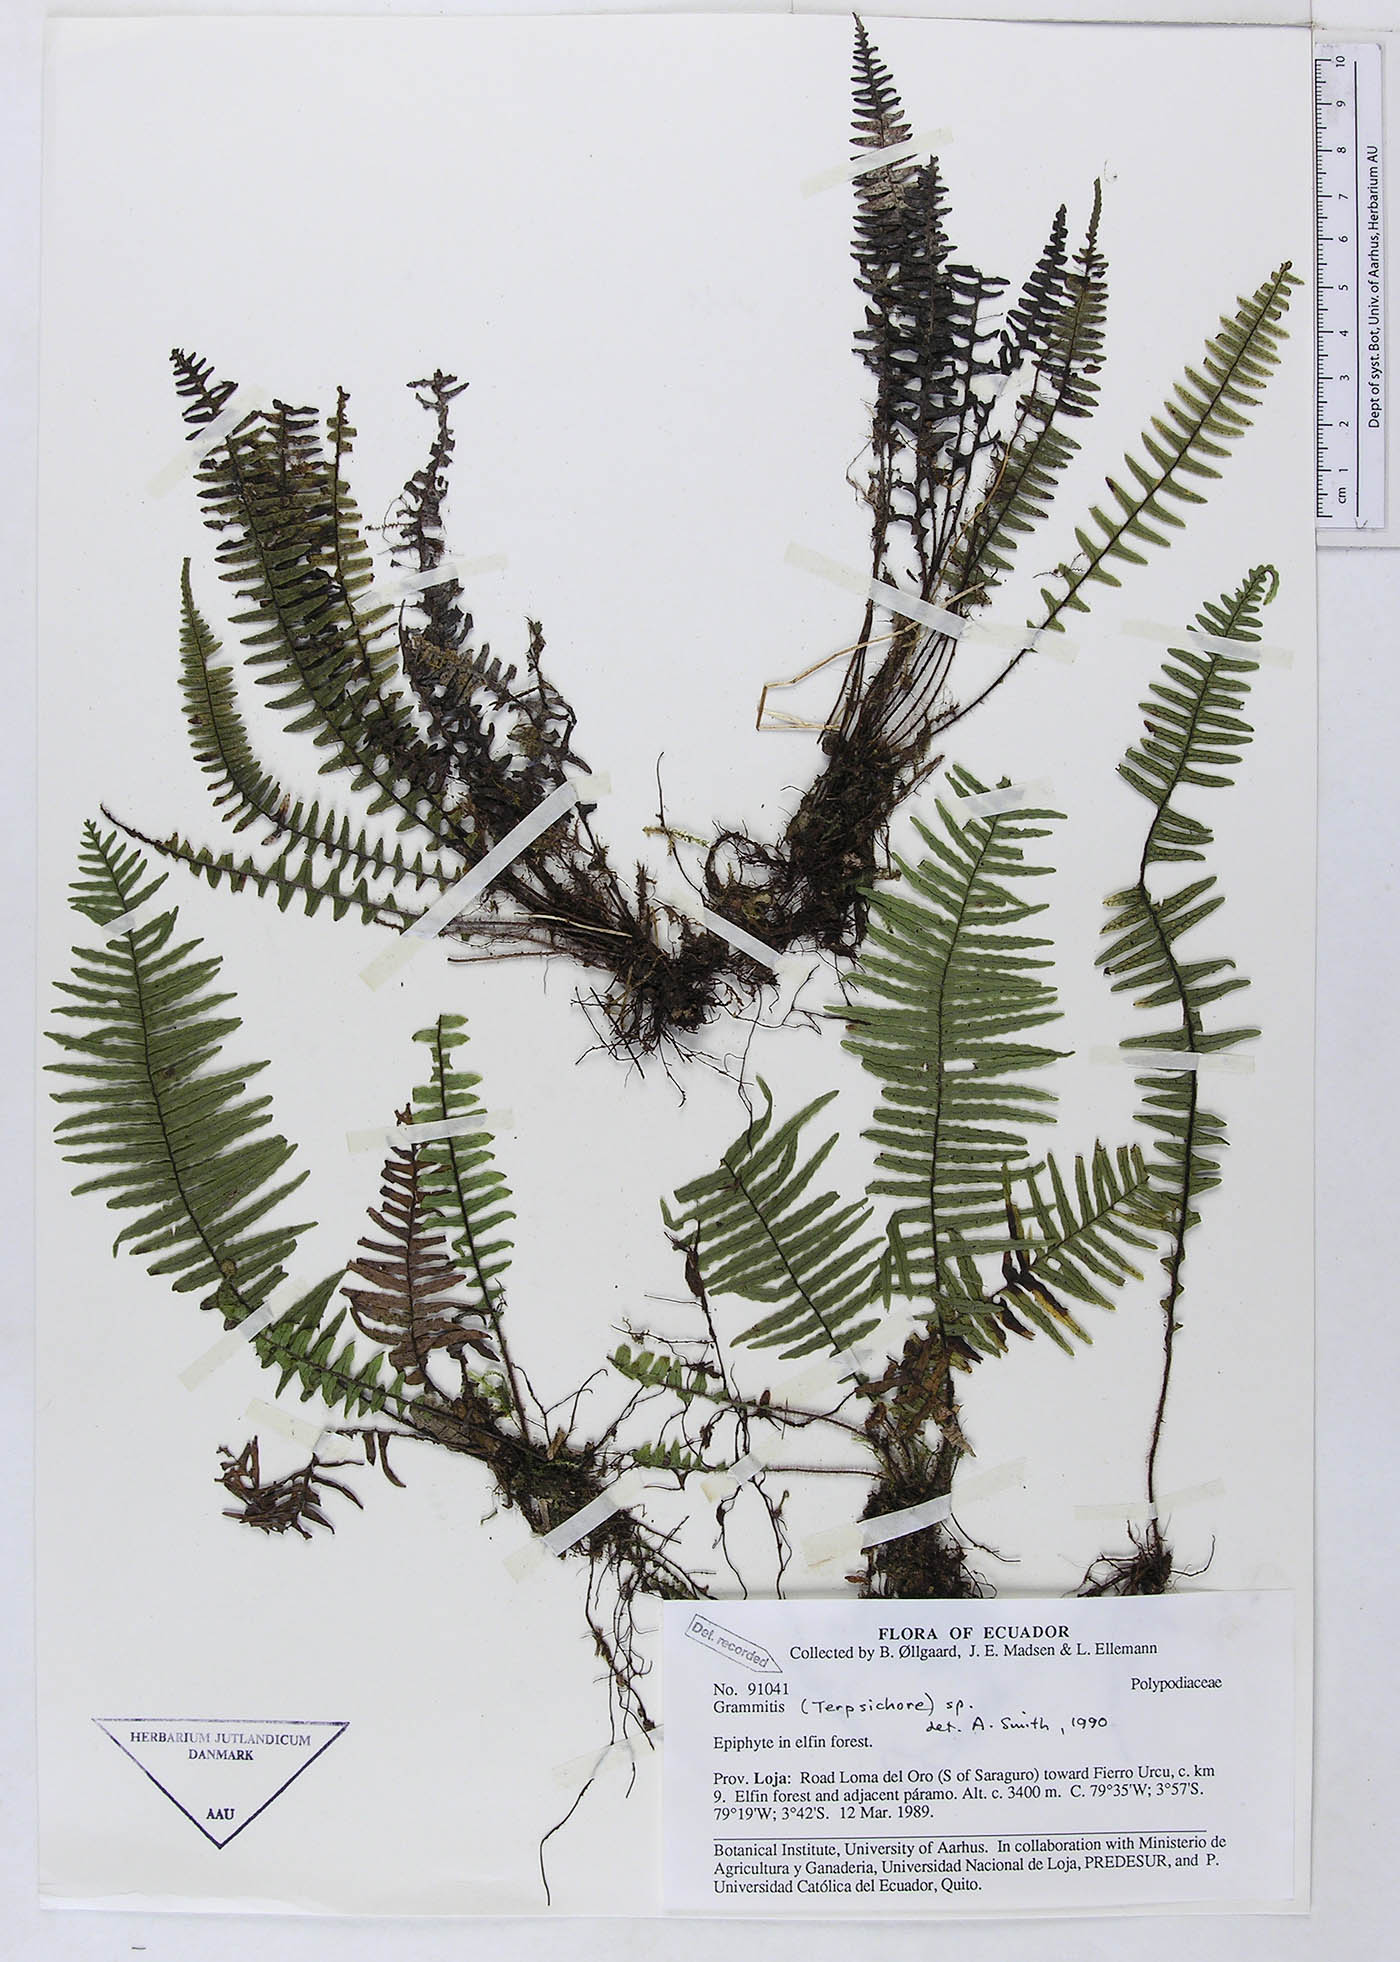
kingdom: Plantae
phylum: Tracheophyta
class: Polypodiopsida
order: Polypodiales
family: Polypodiaceae
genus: Grammitis
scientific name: Grammitis
